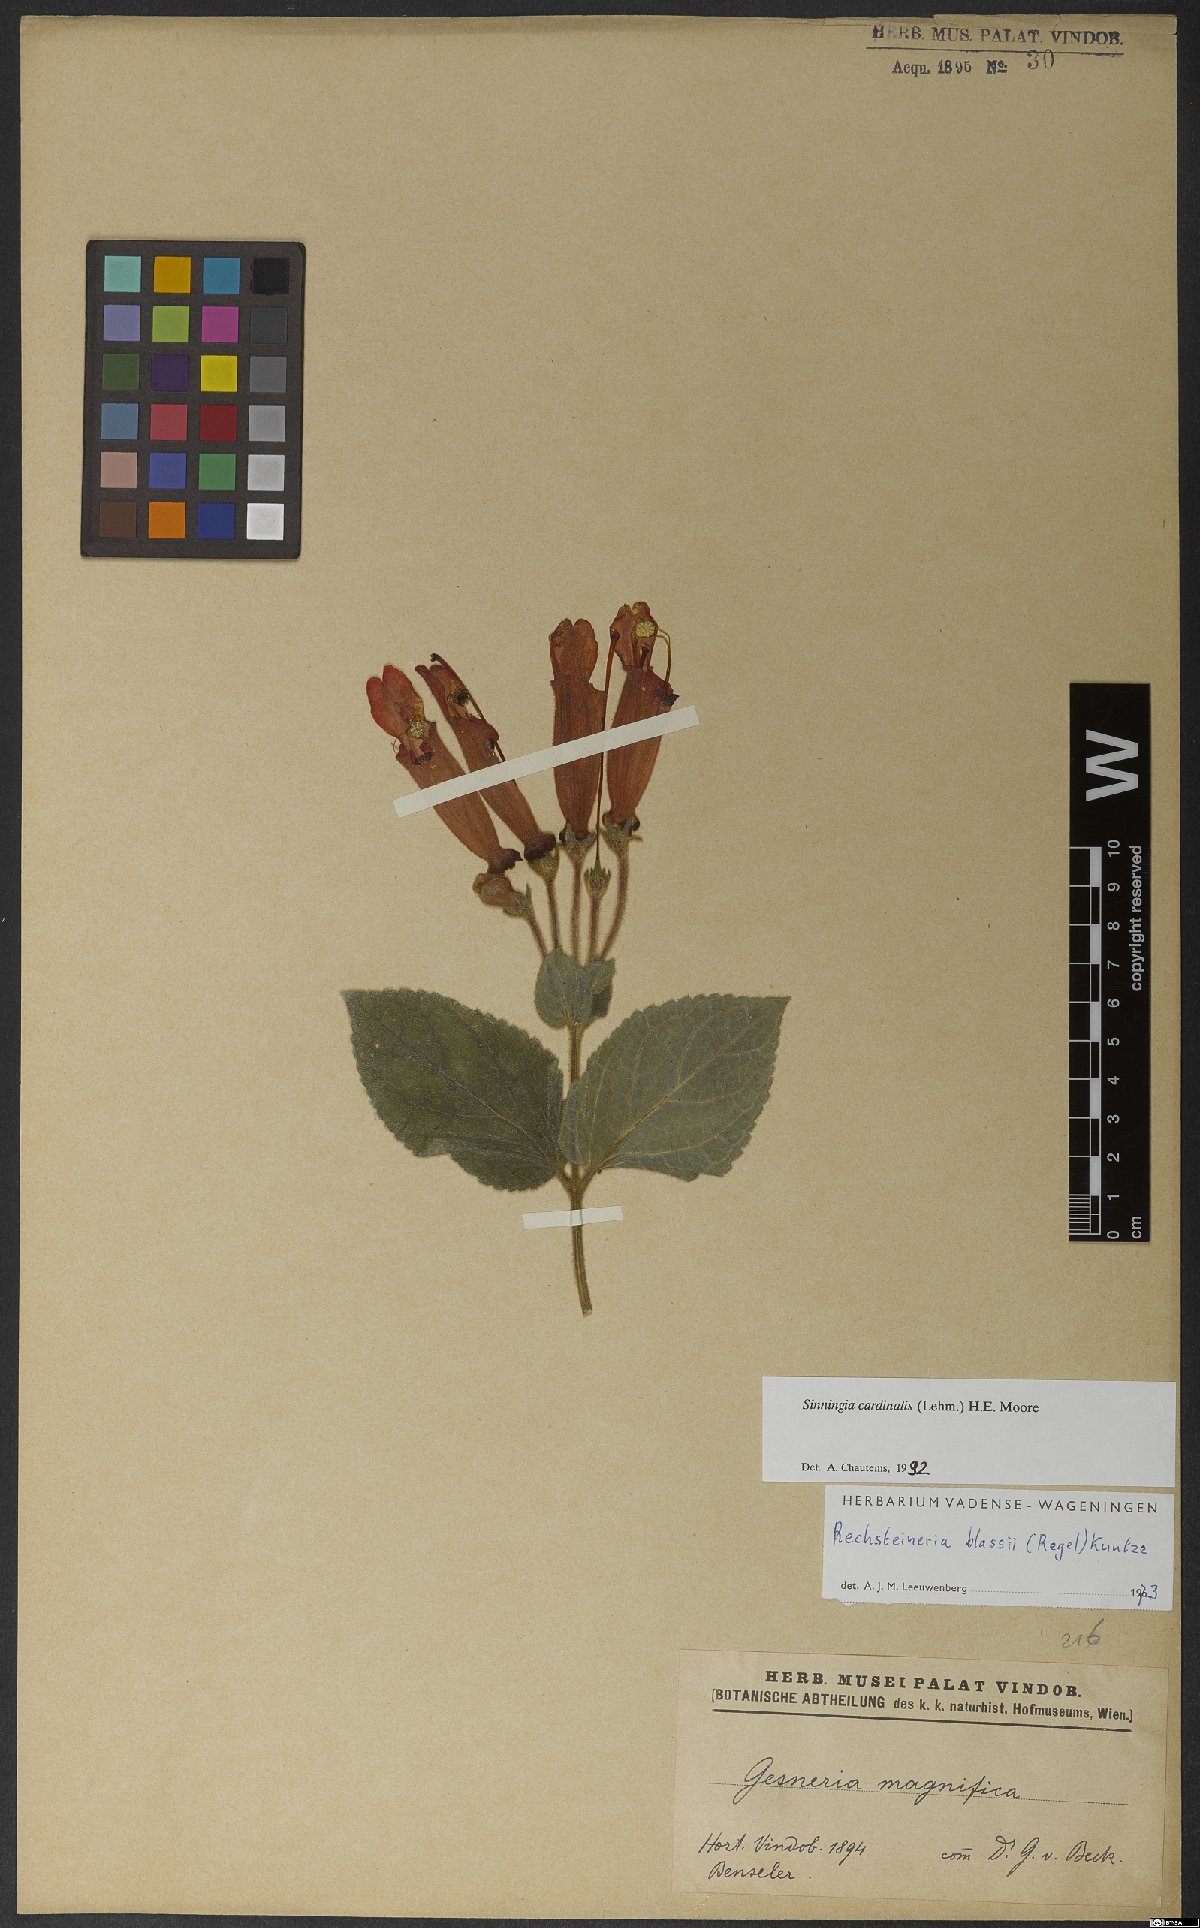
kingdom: Plantae
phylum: Tracheophyta
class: Magnoliopsida
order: Lamiales
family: Gesneriaceae
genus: Sinningia
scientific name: Sinningia cardinalis
